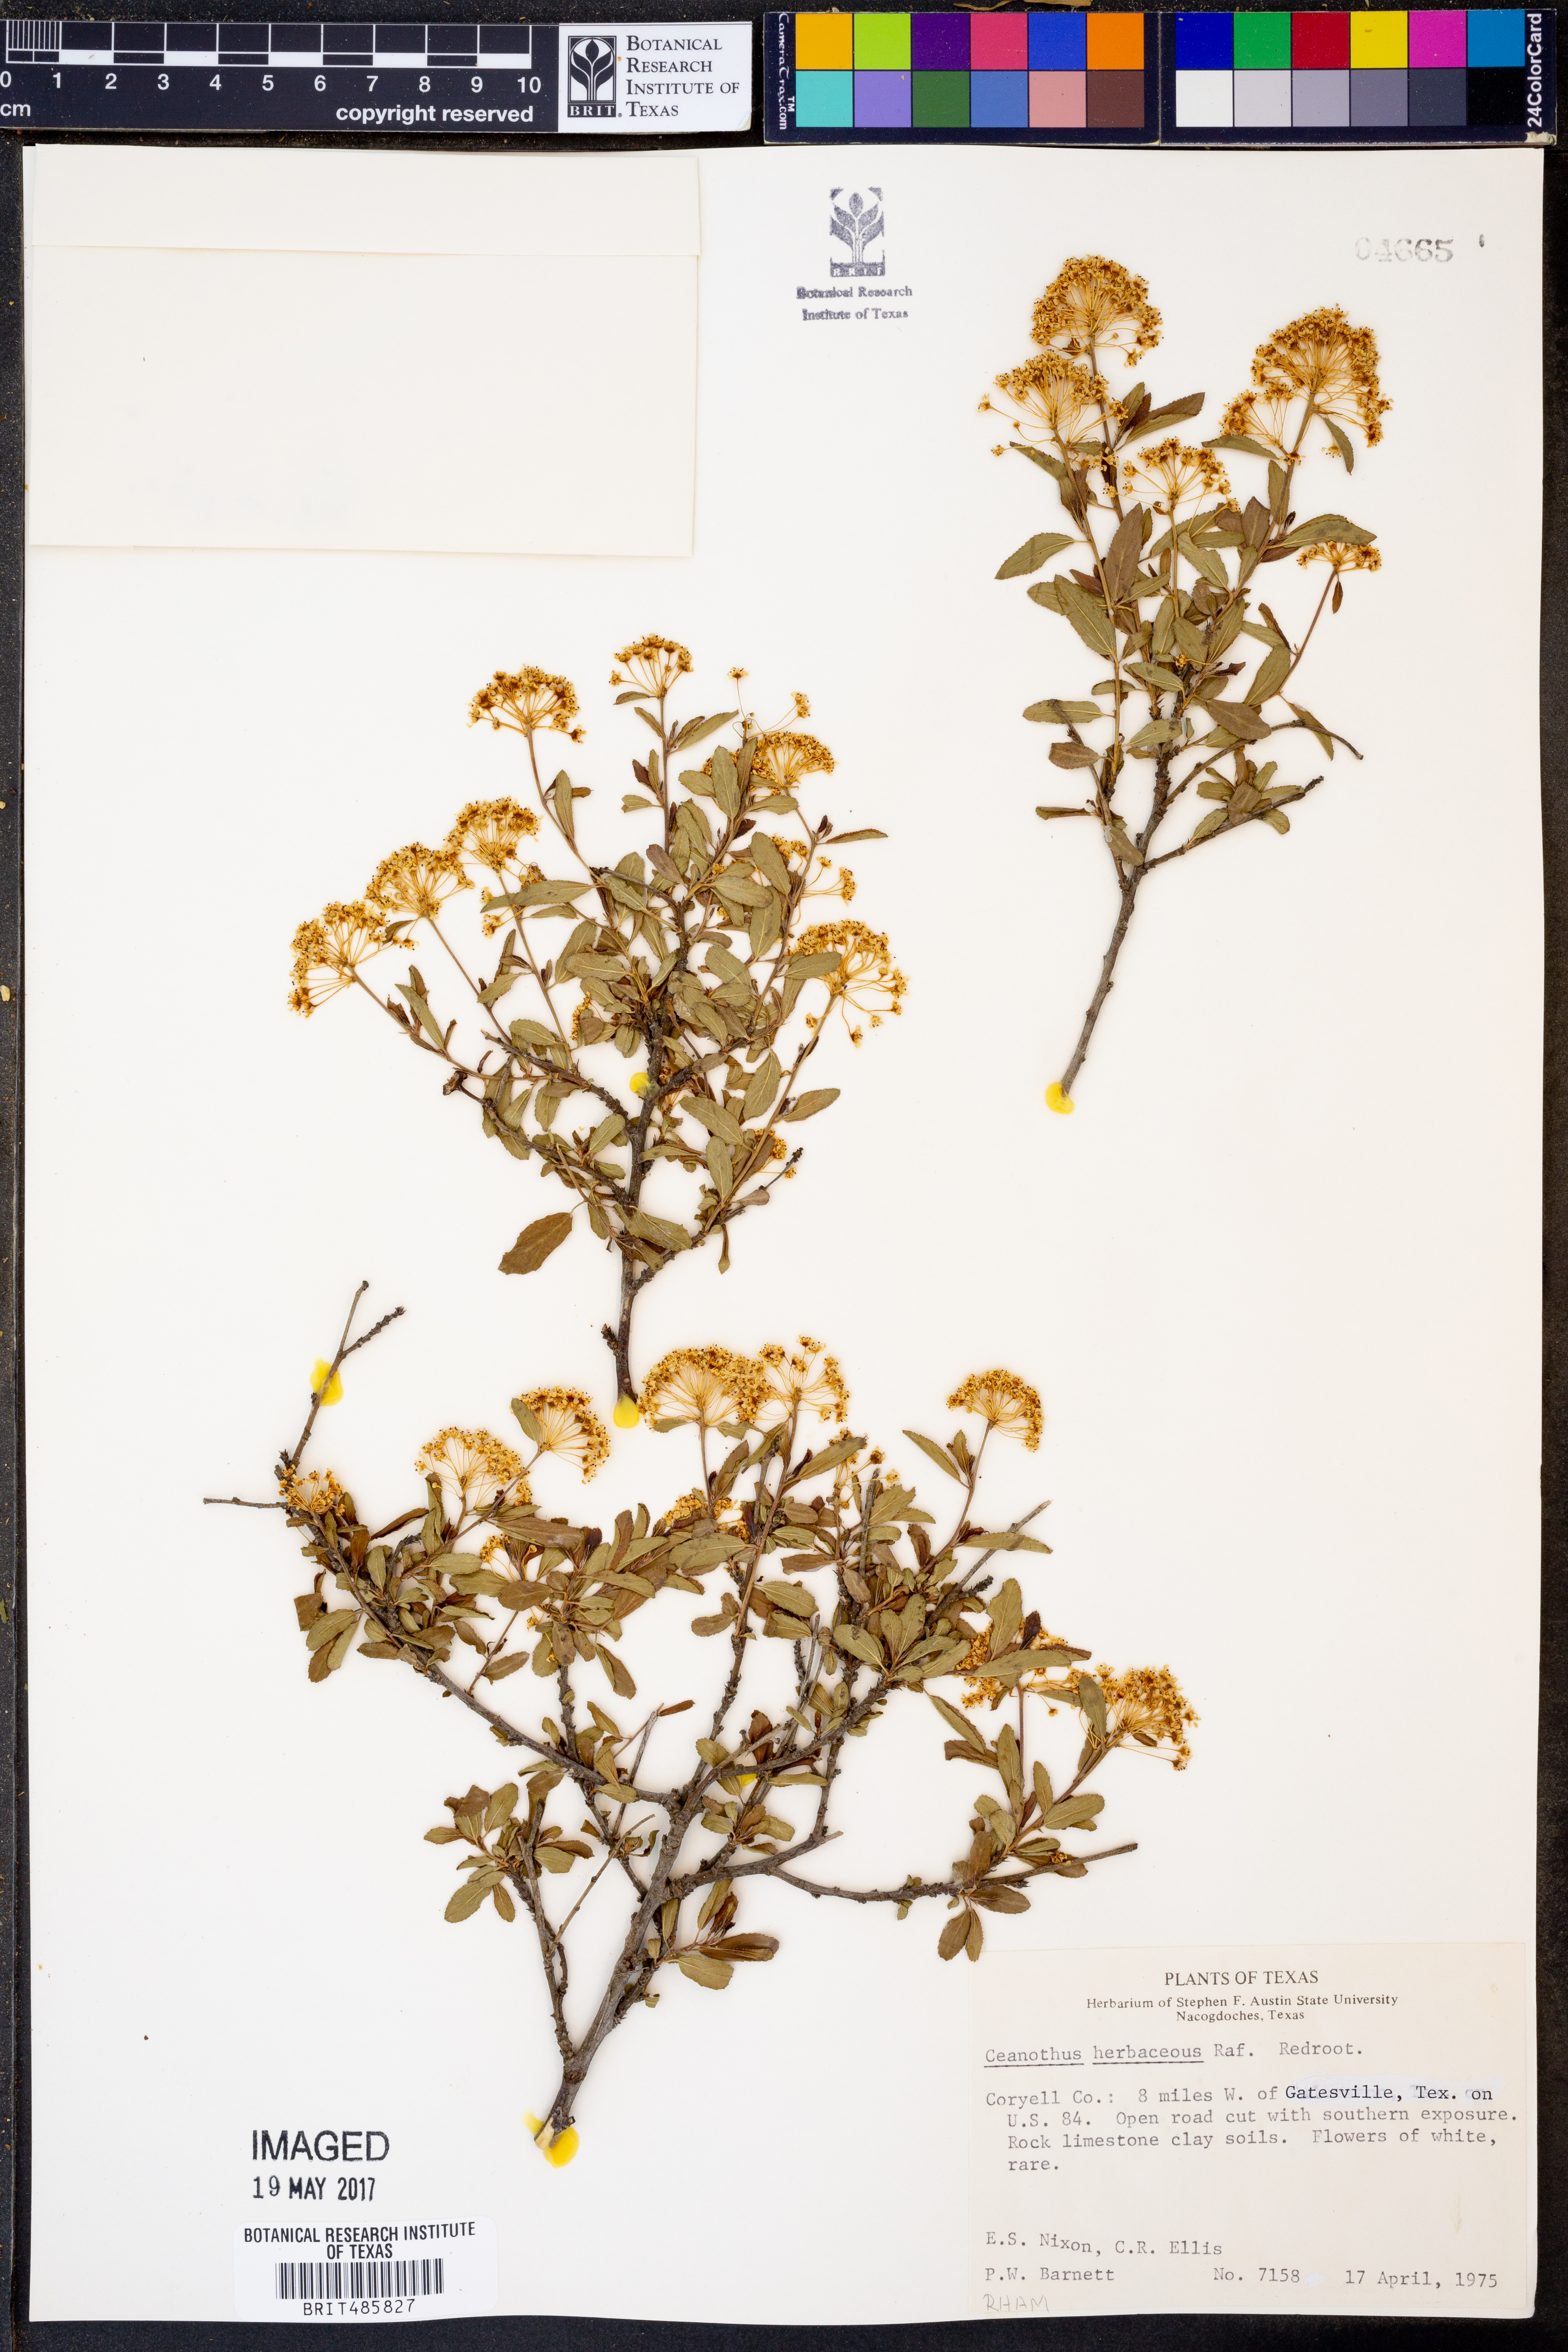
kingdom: Plantae
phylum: Tracheophyta
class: Magnoliopsida
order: Rosales
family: Rhamnaceae
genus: Ceanothus
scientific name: Ceanothus herbaceus
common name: Inland ceanothus
